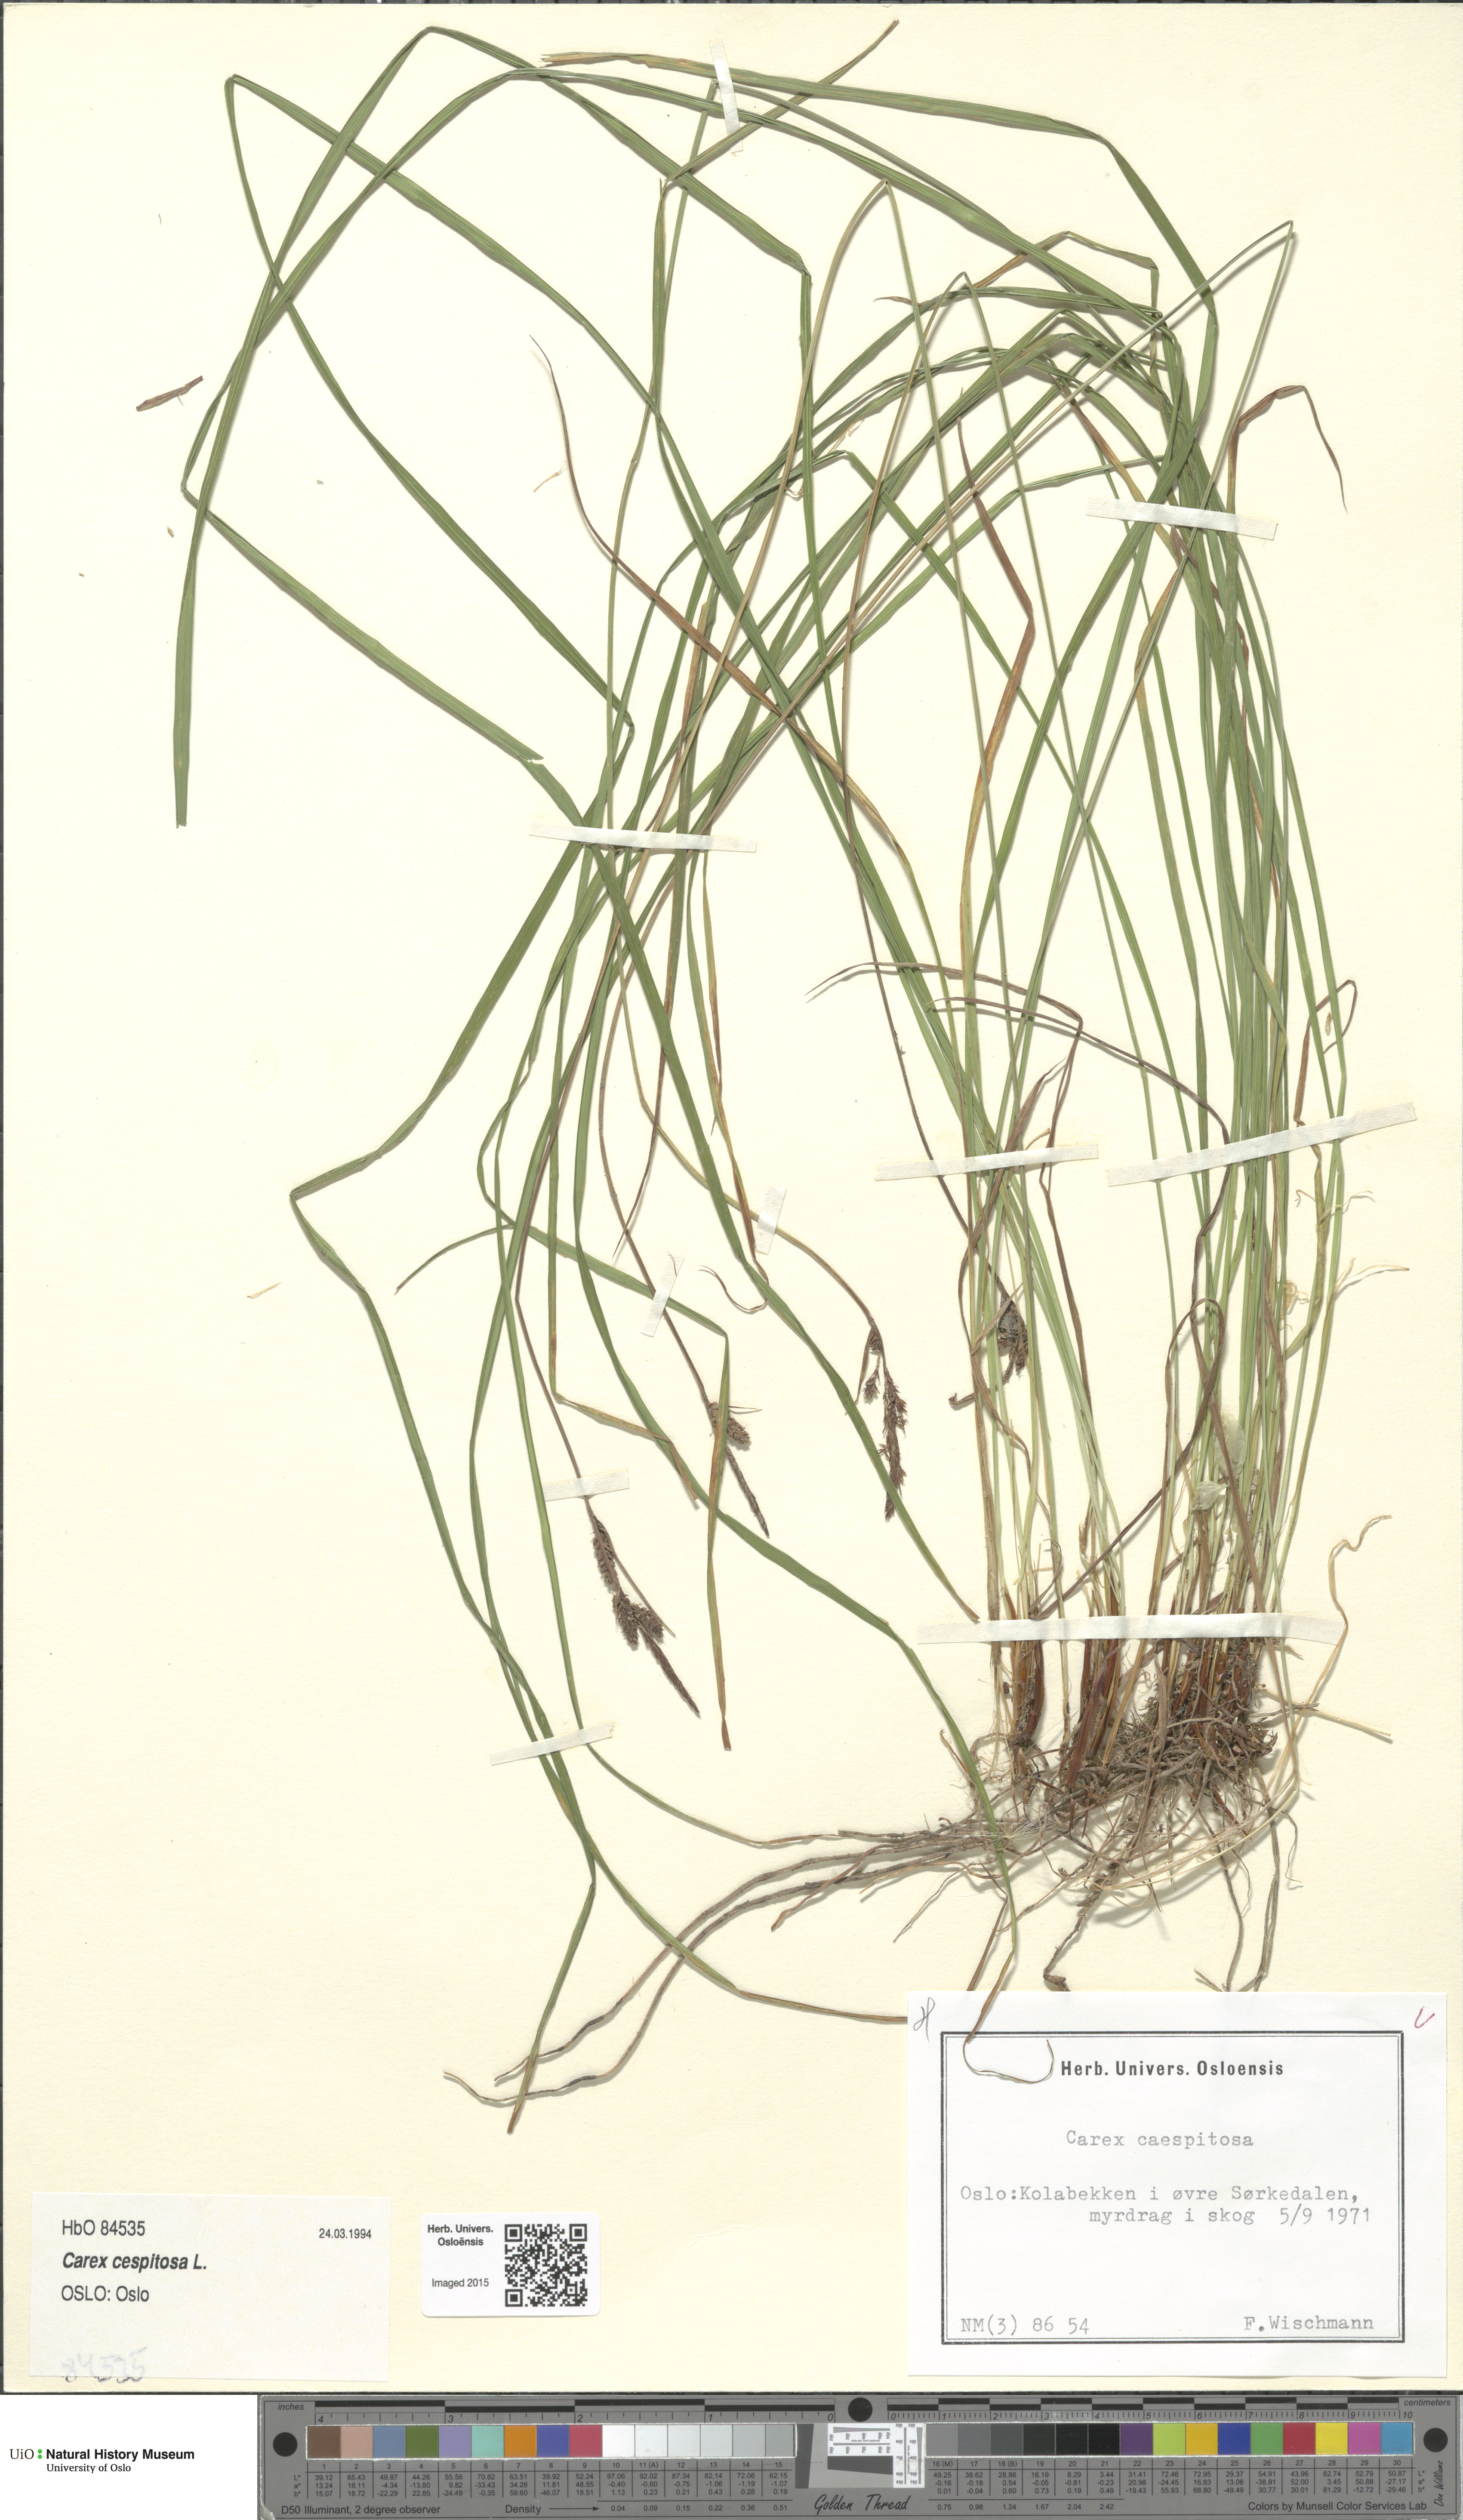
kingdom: Plantae
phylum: Tracheophyta
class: Liliopsida
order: Poales
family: Cyperaceae
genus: Carex
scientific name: Carex cespitosa
